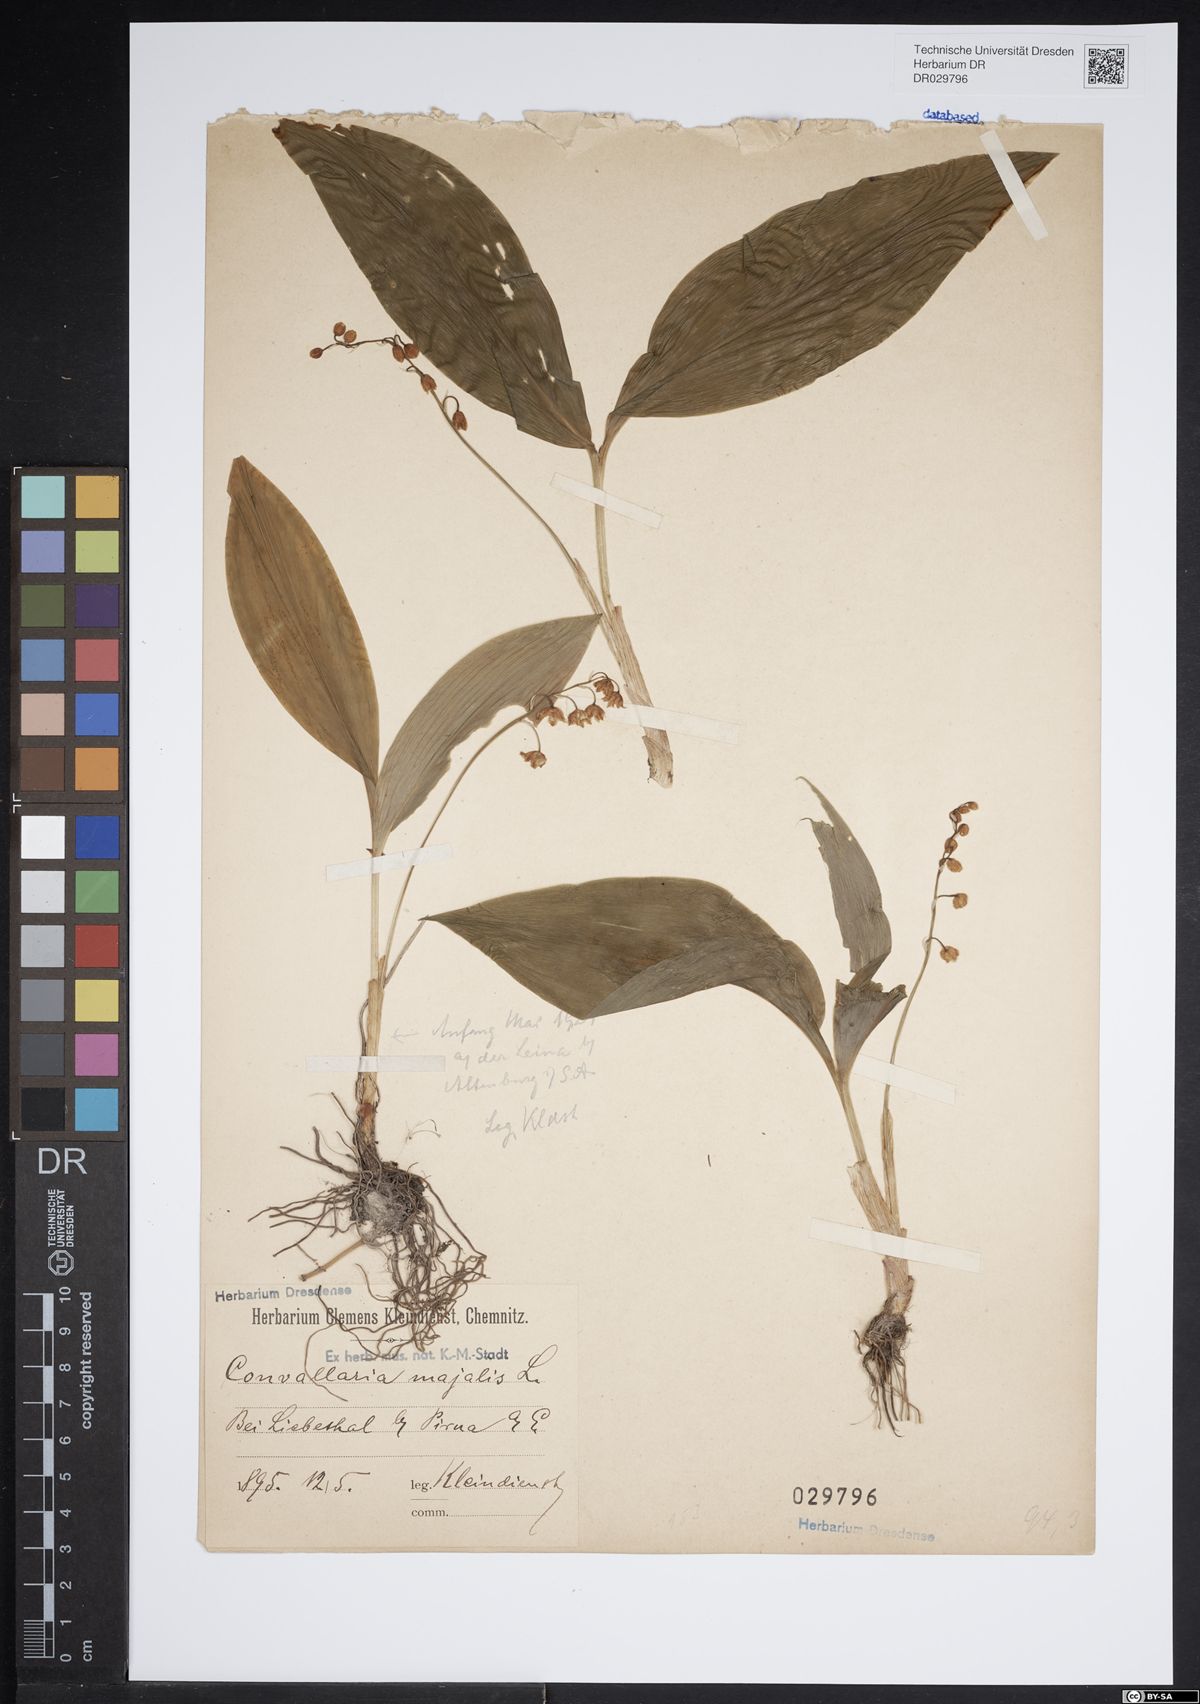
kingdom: Plantae
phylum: Tracheophyta
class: Liliopsida
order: Asparagales
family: Asparagaceae
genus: Convallaria
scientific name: Convallaria majalis
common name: Lily-of-the-valley
